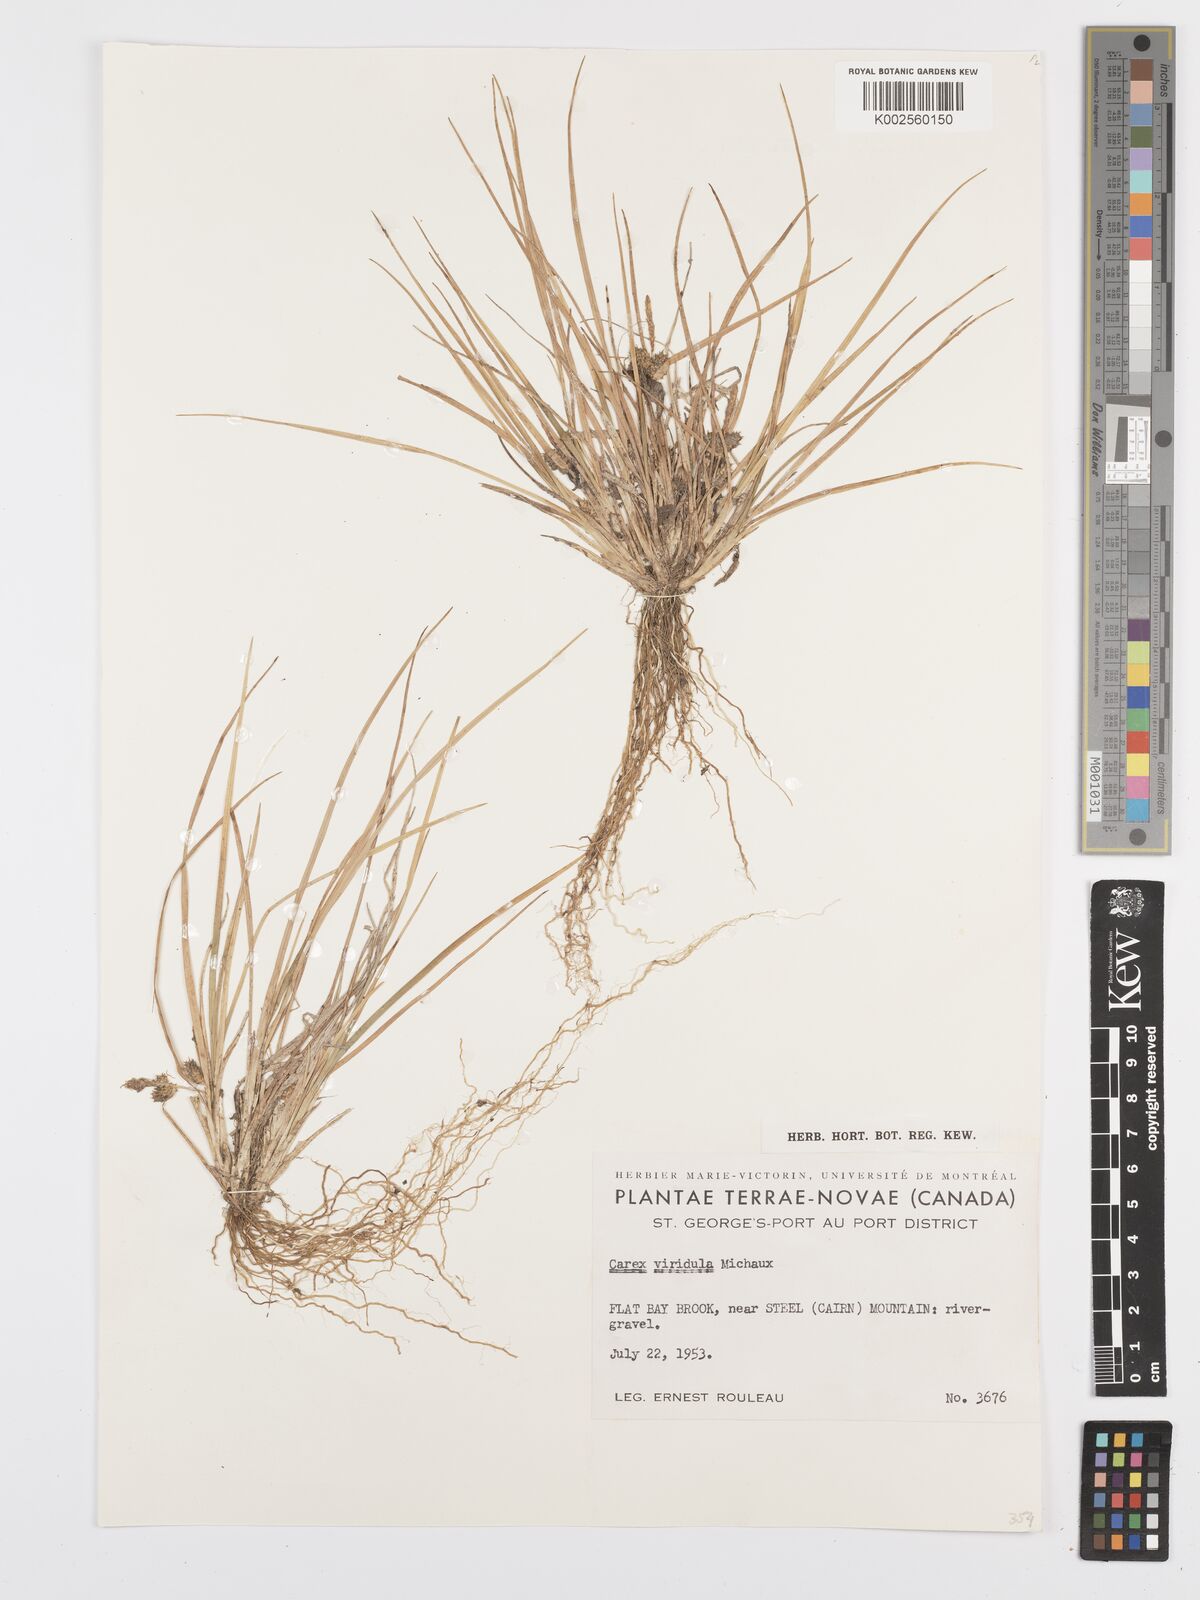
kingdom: Plantae
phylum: Tracheophyta
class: Liliopsida
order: Poales
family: Cyperaceae
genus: Carex
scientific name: Carex oederi
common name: Common & small-fruited yellow-sedge
